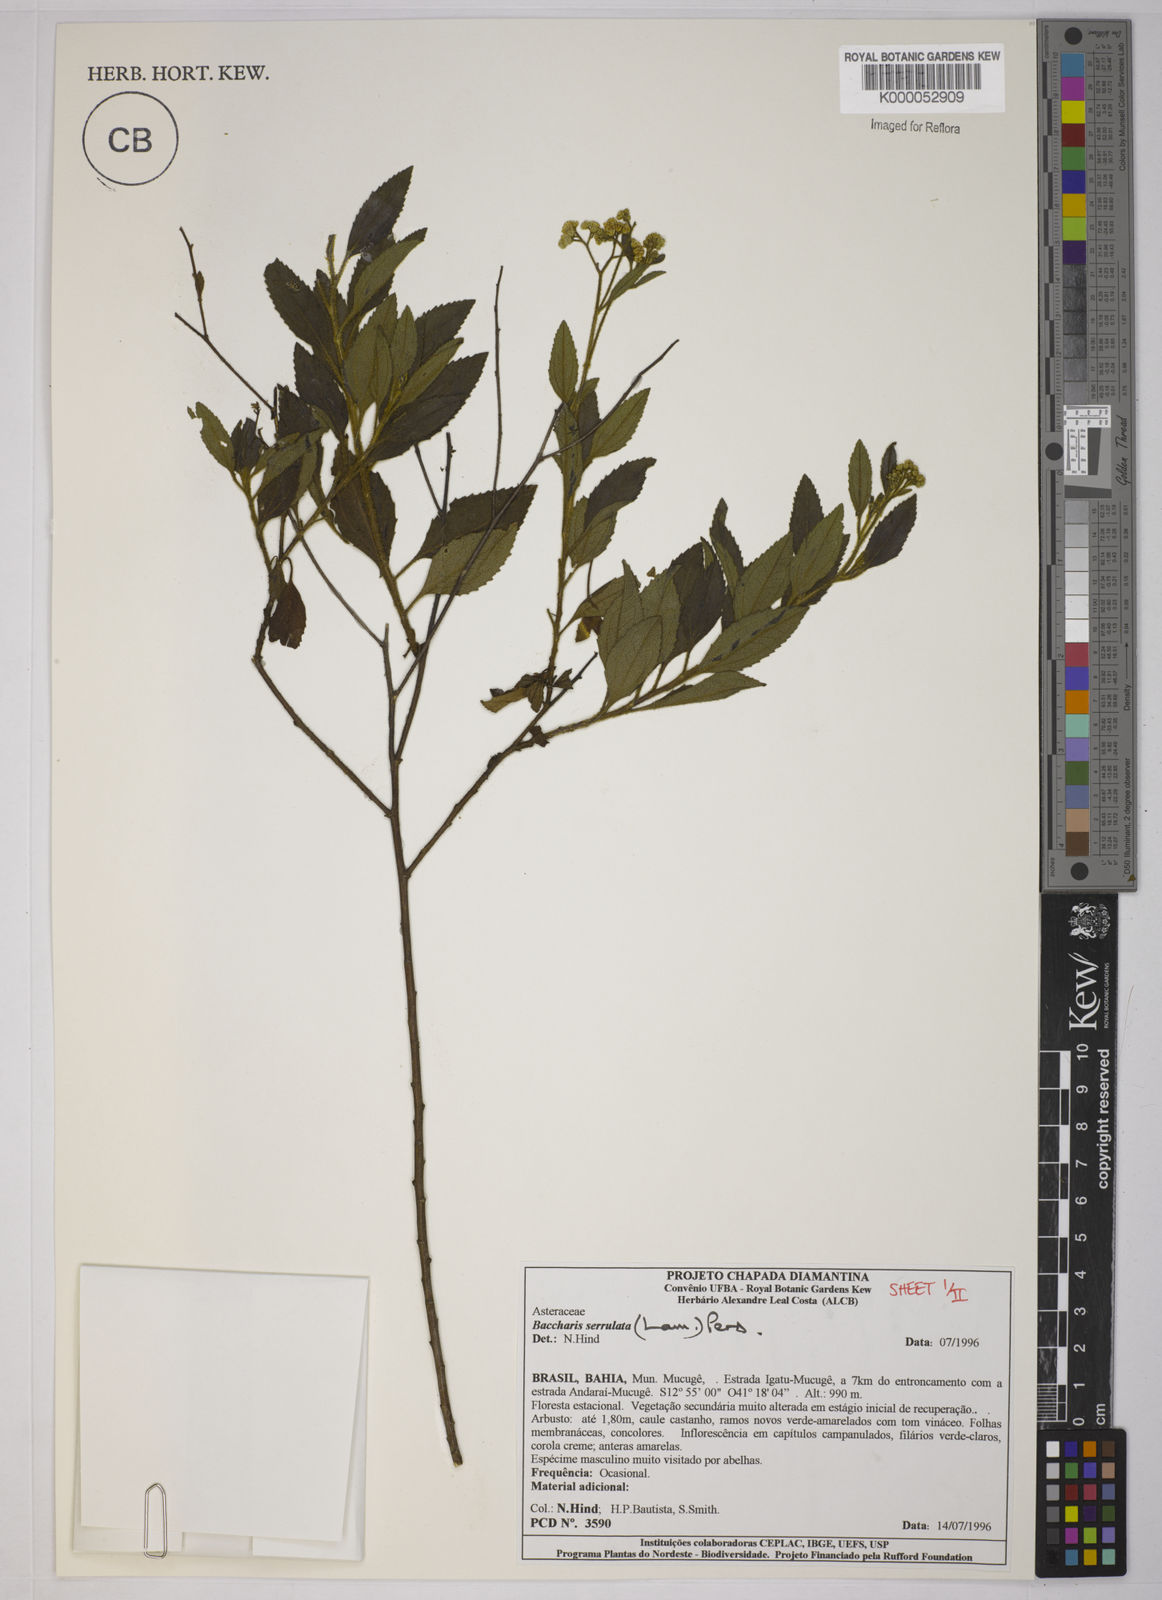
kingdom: Plantae
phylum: Tracheophyta
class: Magnoliopsida
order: Asterales
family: Asteraceae
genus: Baccharis
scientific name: Baccharis serrulata
